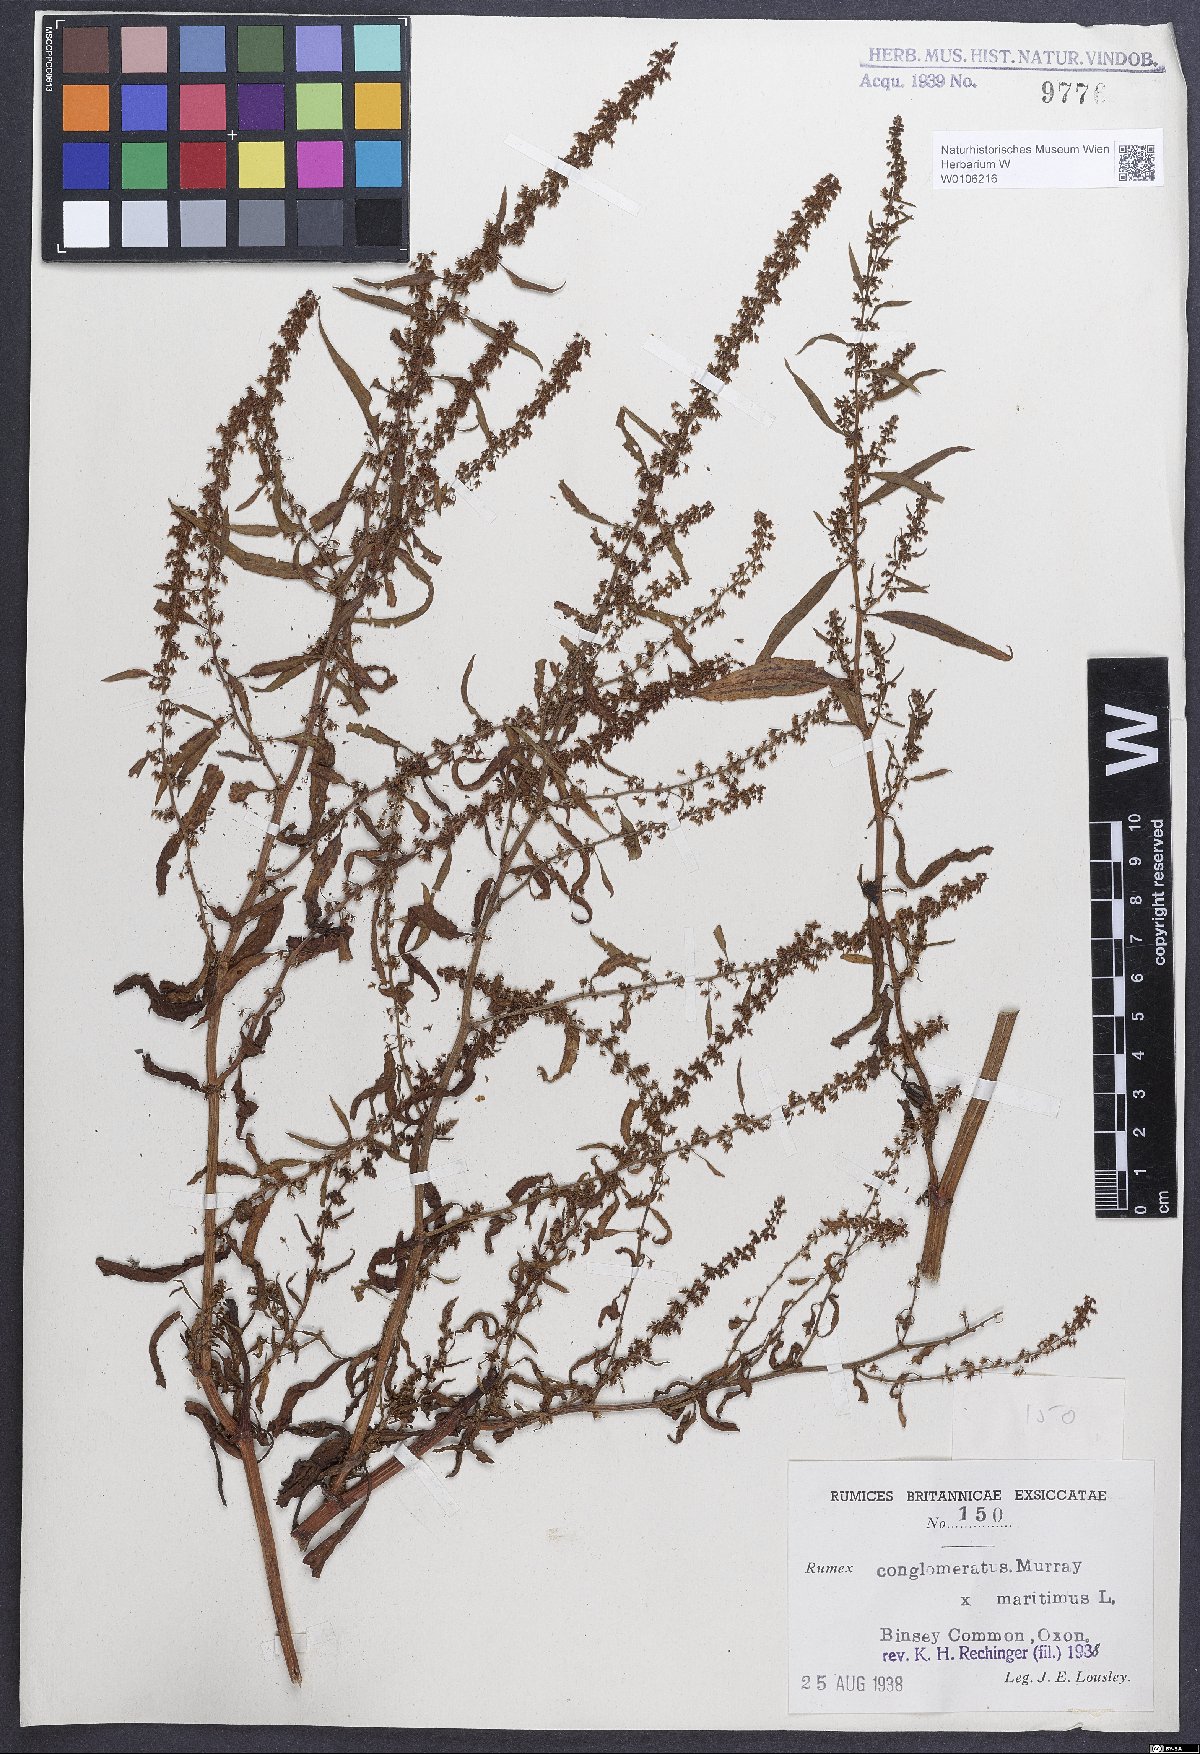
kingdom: Plantae
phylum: Tracheophyta
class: Magnoliopsida
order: Caryophyllales
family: Polygonaceae
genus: Rumex
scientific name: Rumex
